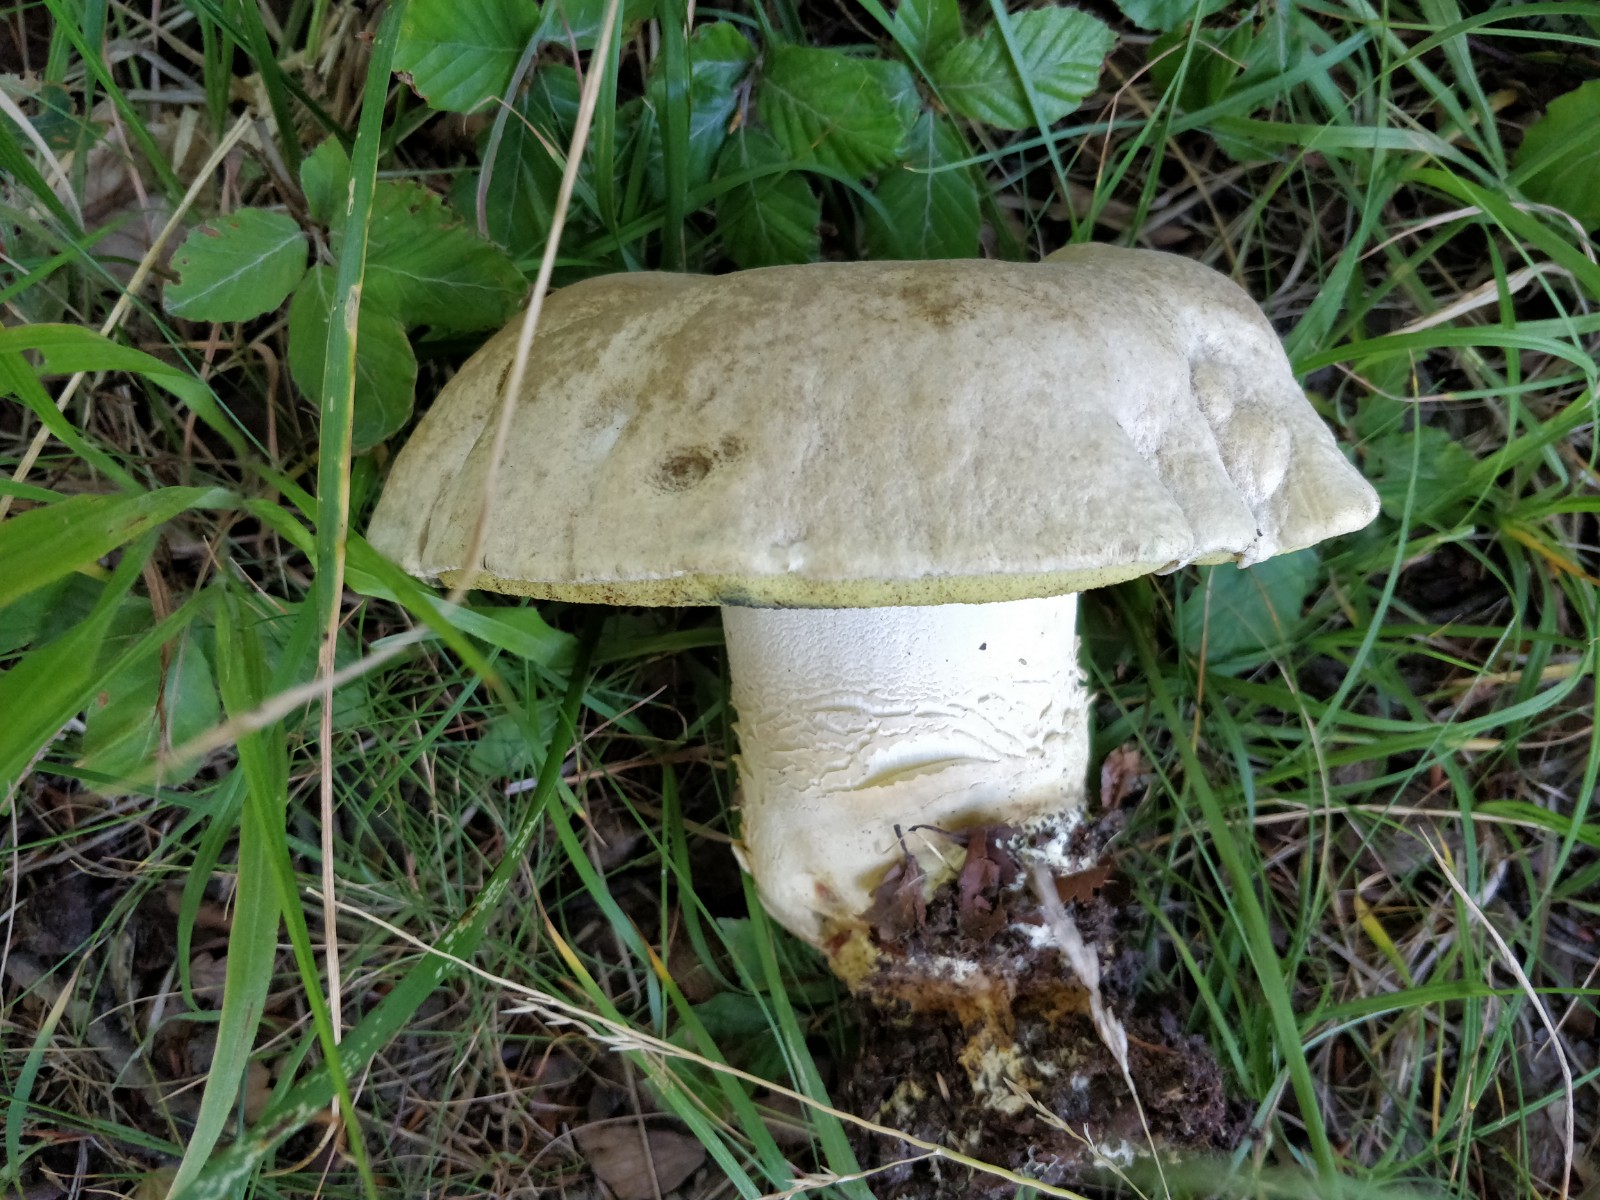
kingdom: Fungi
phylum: Basidiomycota
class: Agaricomycetes
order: Boletales
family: Boletaceae
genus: Caloboletus
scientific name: Caloboletus radicans
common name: rod-rørhat
